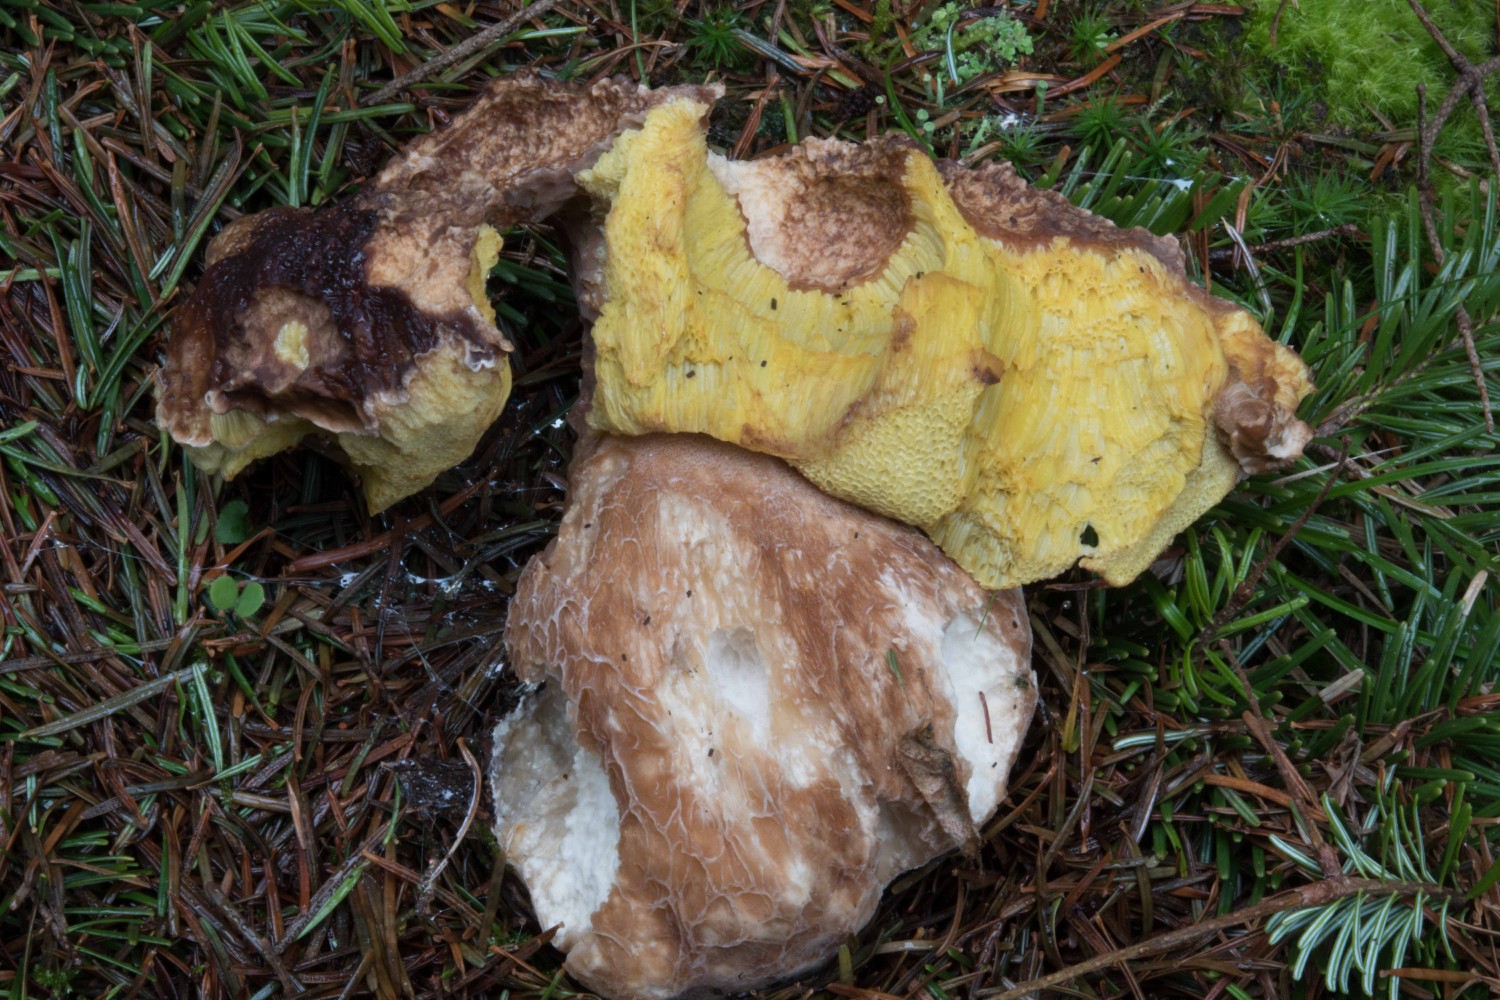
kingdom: Fungi
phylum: Basidiomycota
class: Agaricomycetes
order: Boletales
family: Boletaceae
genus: Boletus
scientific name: Boletus pinophilus
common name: rødbrun rørhat
